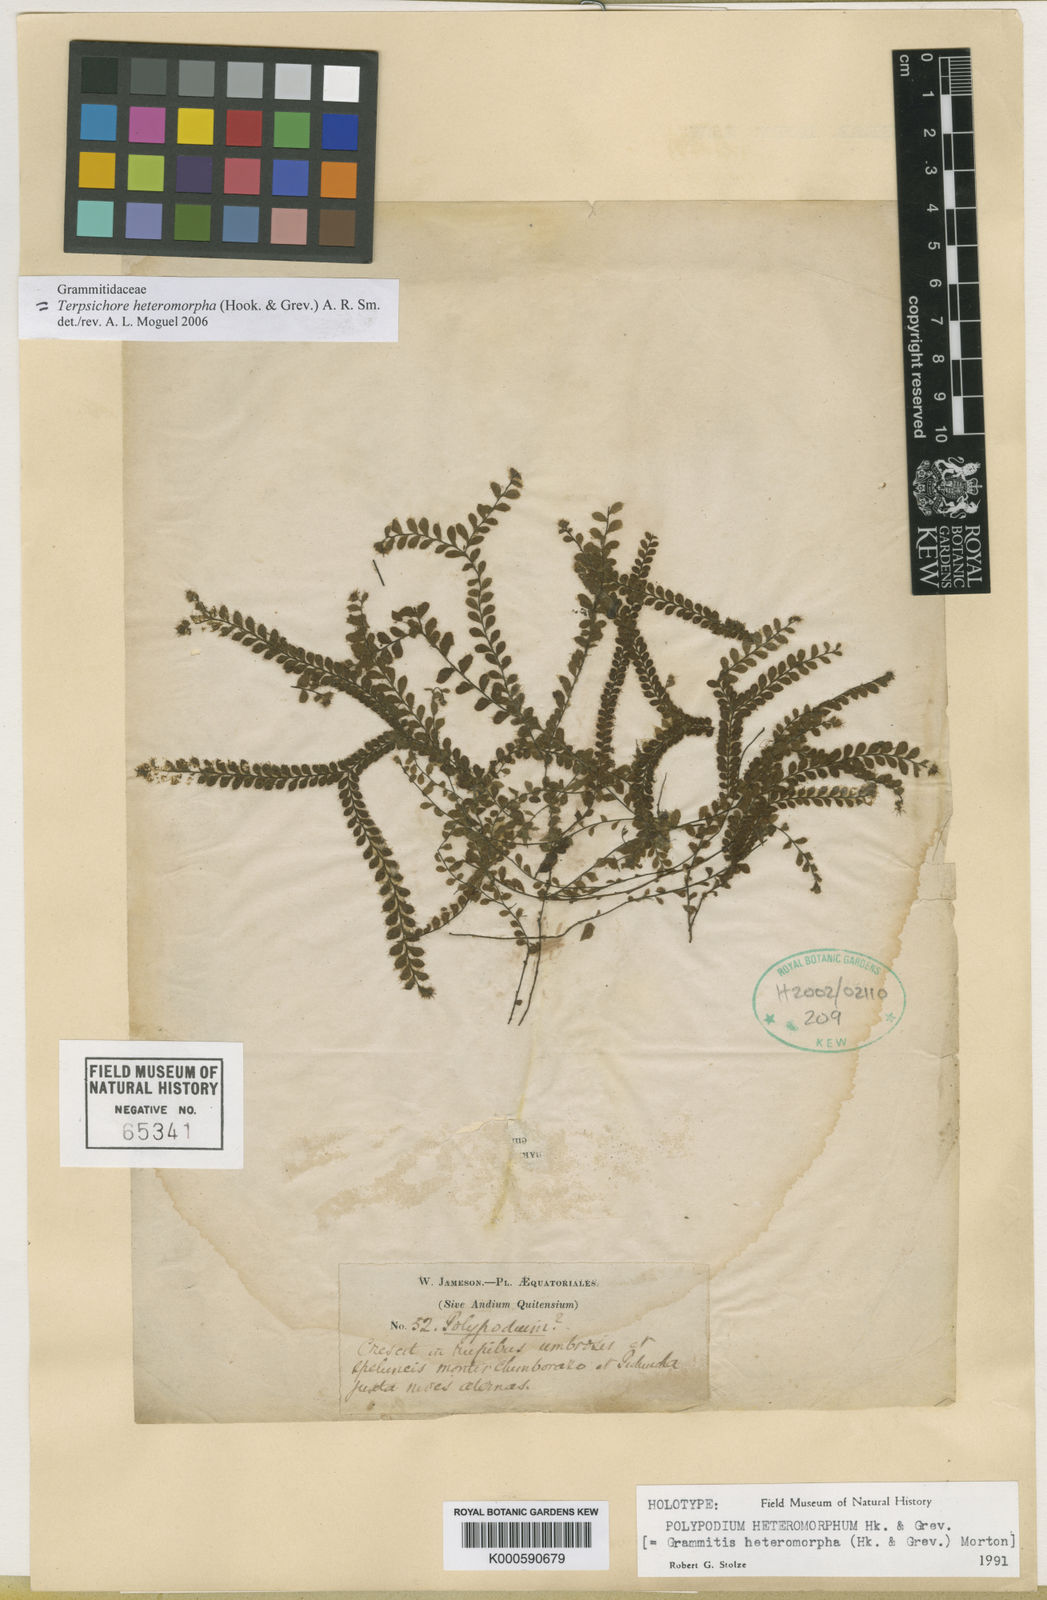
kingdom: Plantae
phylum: Tracheophyta
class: Polypodiopsida
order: Polypodiales
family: Polypodiaceae
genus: Alansmia
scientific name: Alansmia heteromorpha
